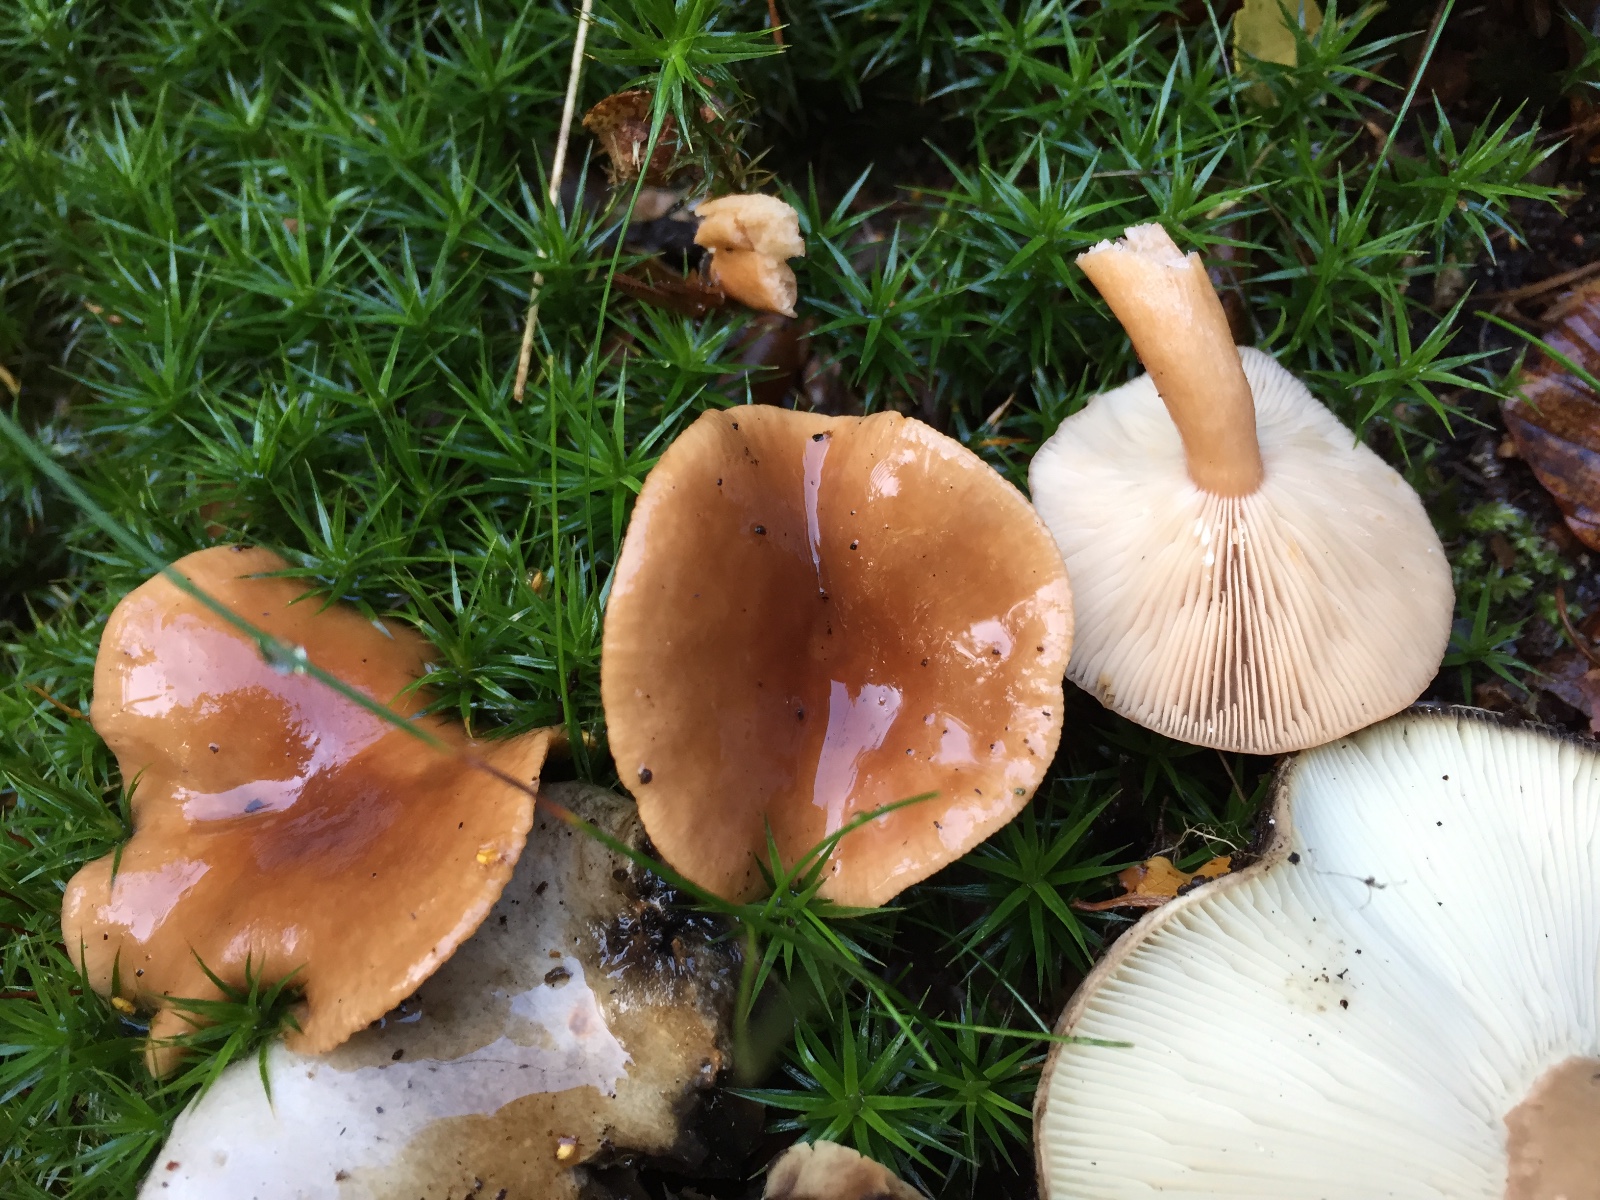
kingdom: Fungi
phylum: Basidiomycota
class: Agaricomycetes
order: Russulales
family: Russulaceae
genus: Lactarius
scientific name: Lactarius subdulcis
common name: sødlig mælkehat
